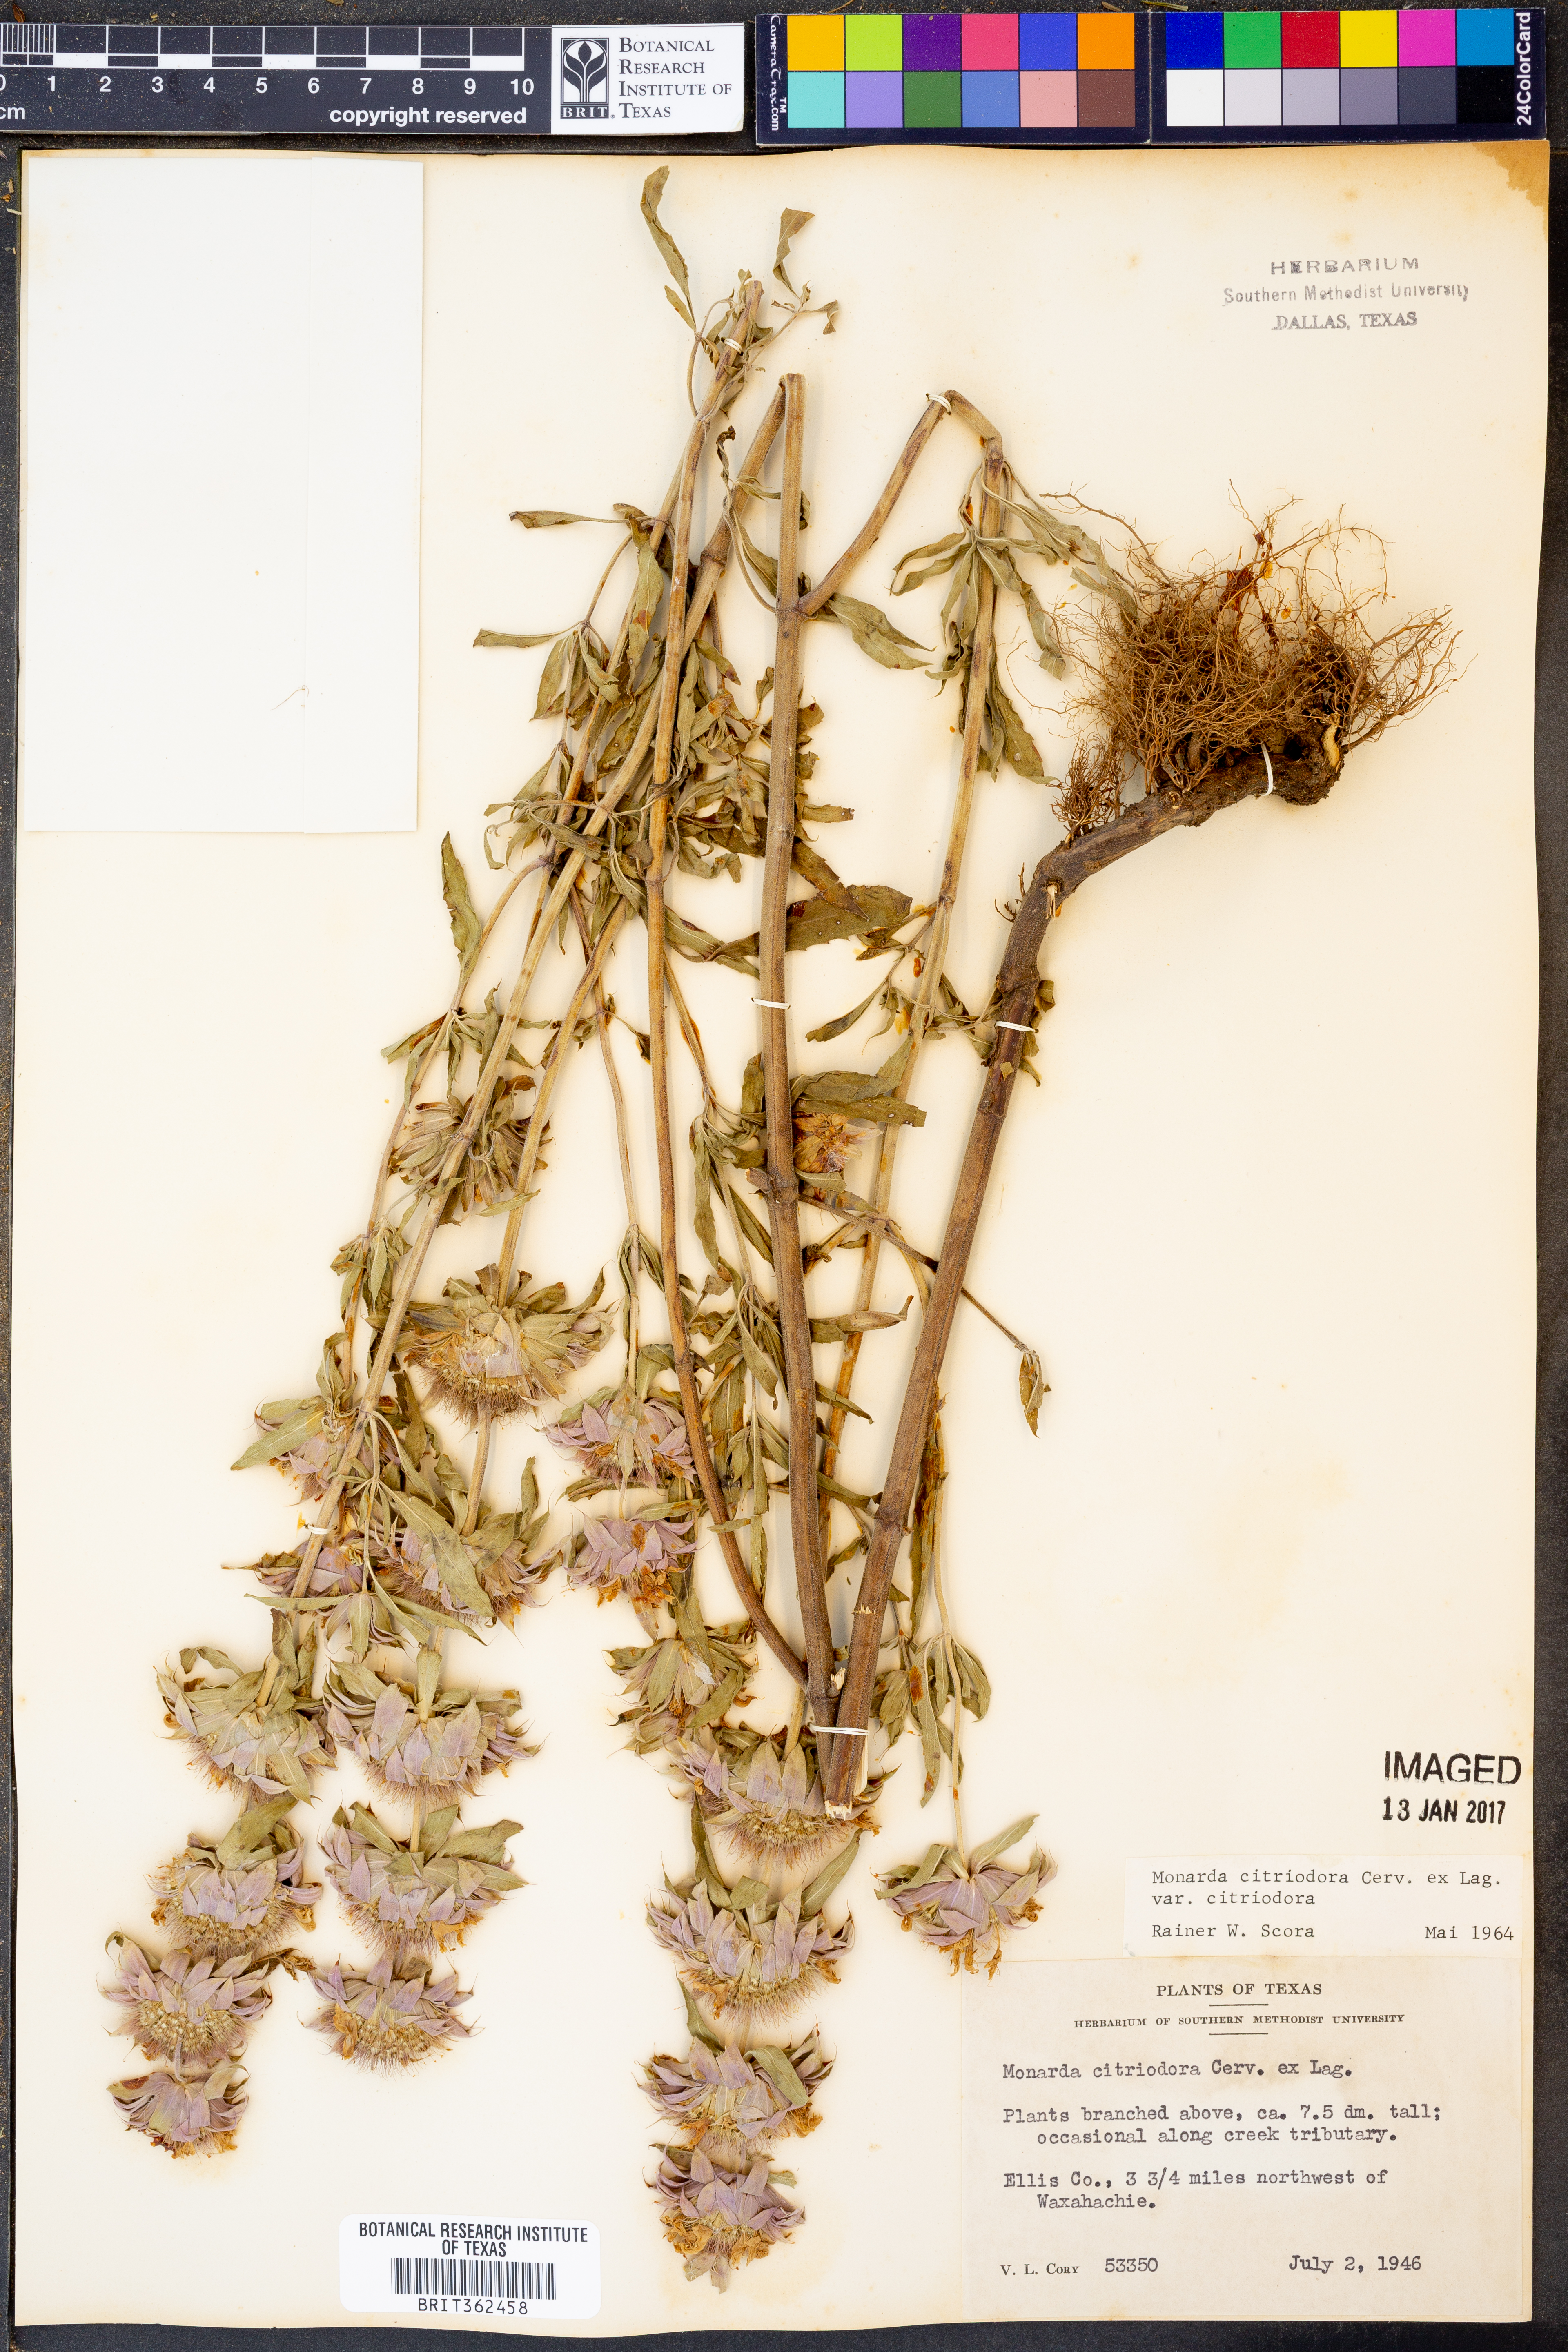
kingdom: Plantae
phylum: Tracheophyta
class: Magnoliopsida
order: Lamiales
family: Lamiaceae
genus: Monarda
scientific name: Monarda citriodora
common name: Lemon beebalm
